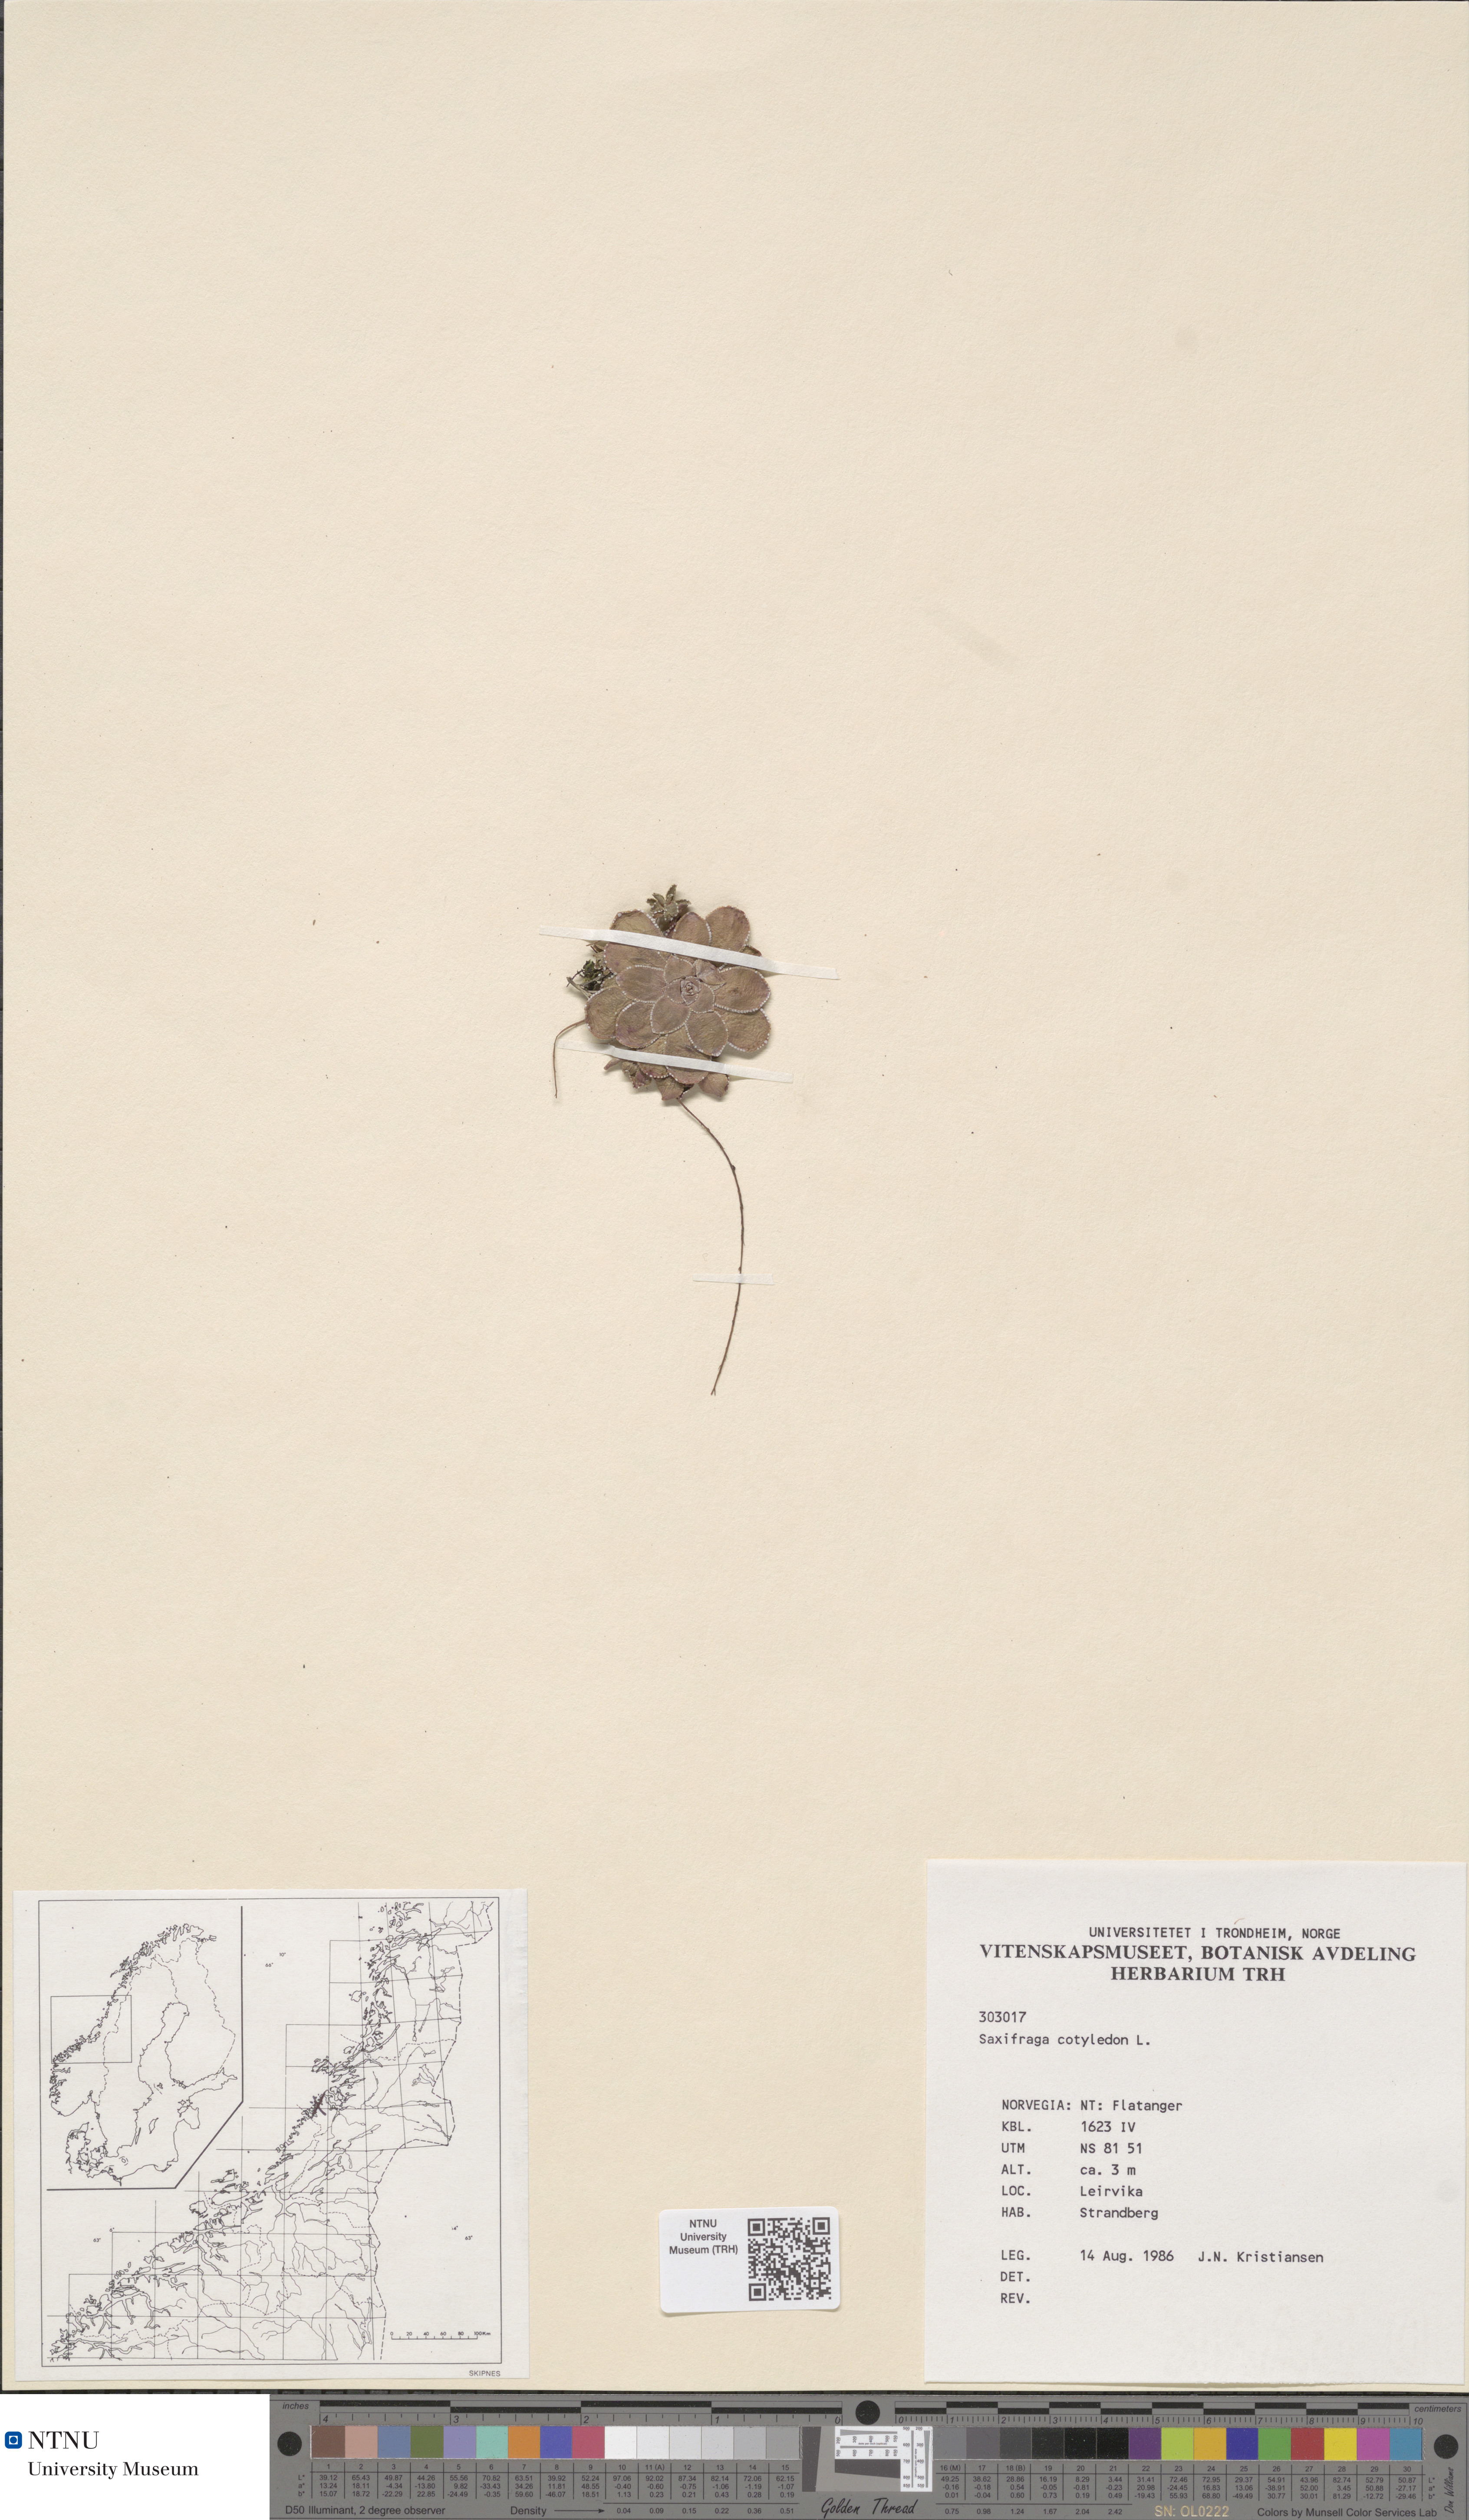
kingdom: Plantae
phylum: Tracheophyta
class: Magnoliopsida
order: Saxifragales
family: Saxifragaceae
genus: Saxifraga
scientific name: Saxifraga cotyledon
